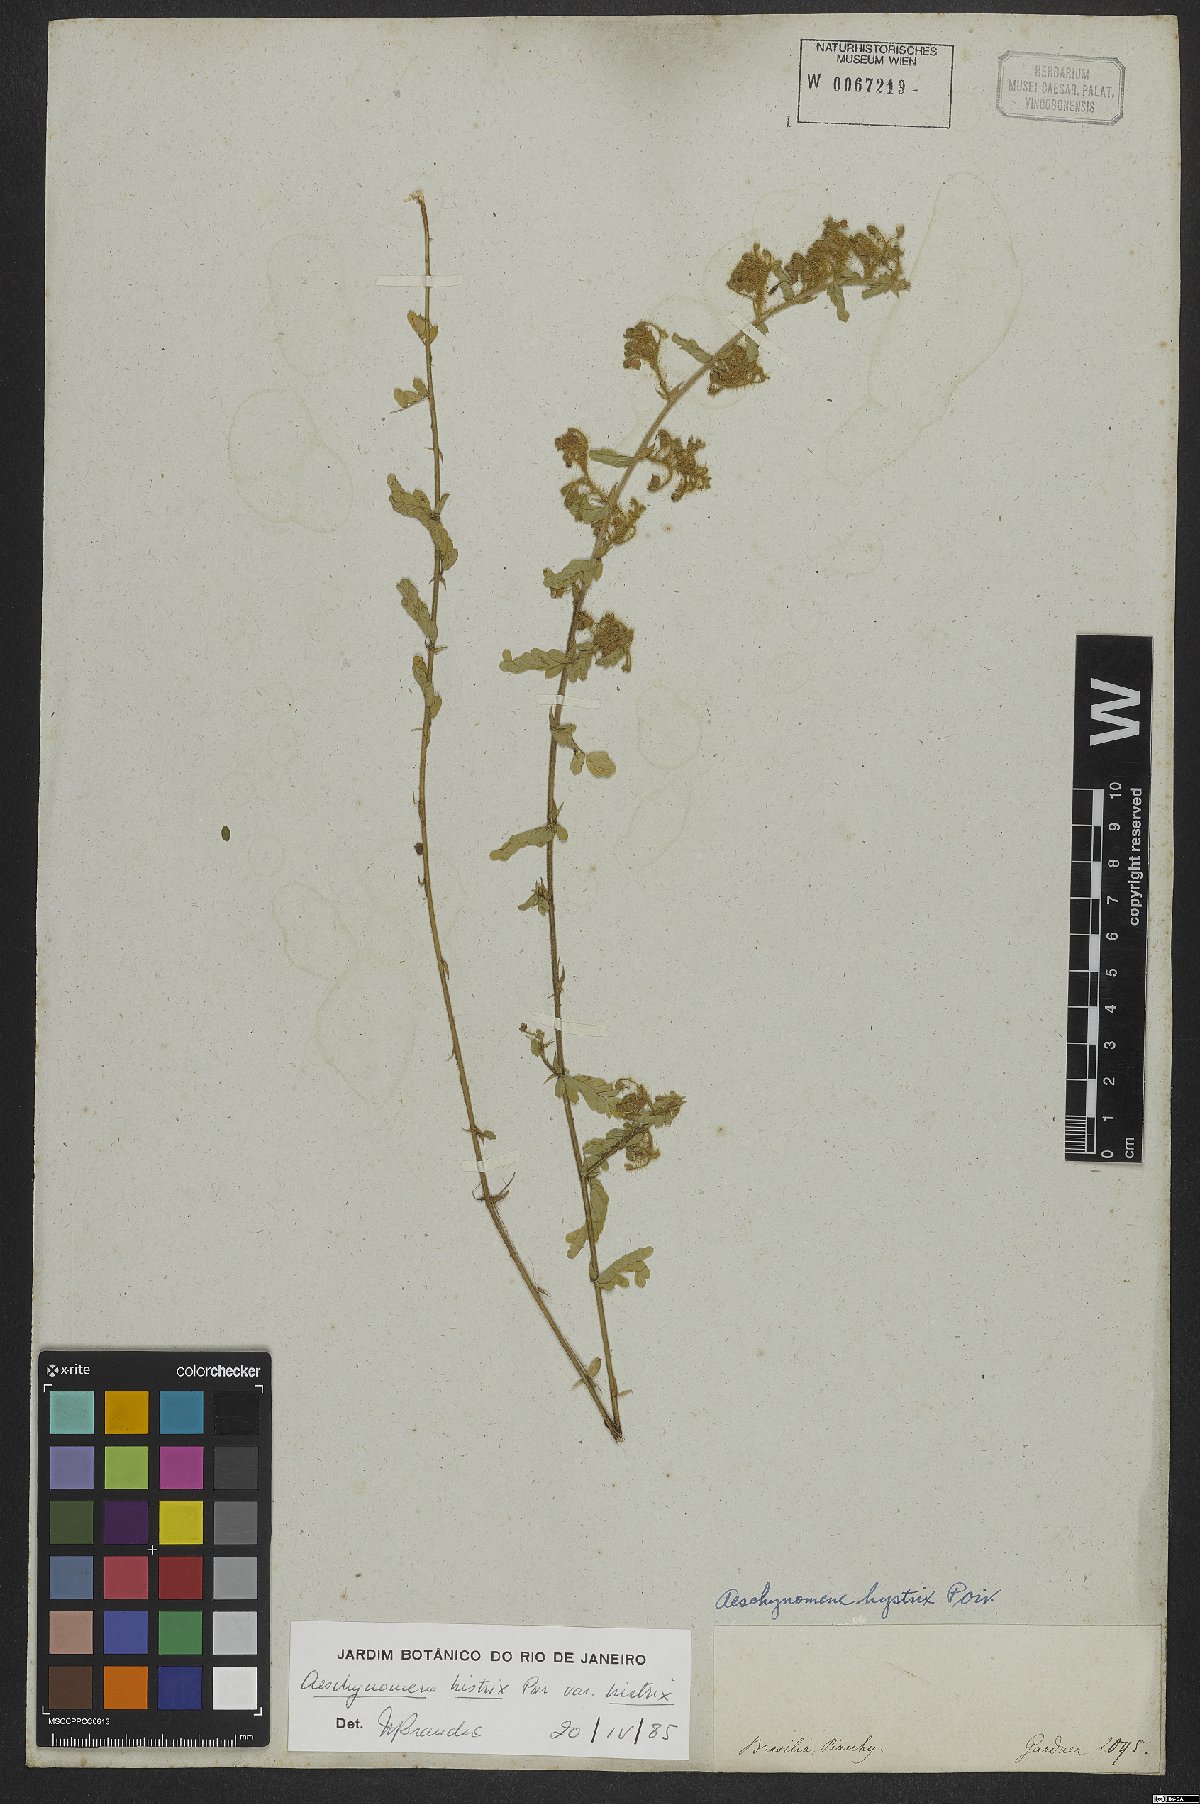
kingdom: Plantae
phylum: Tracheophyta
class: Magnoliopsida
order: Fabales
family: Fabaceae
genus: Ctenodon
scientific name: Ctenodon histrix
